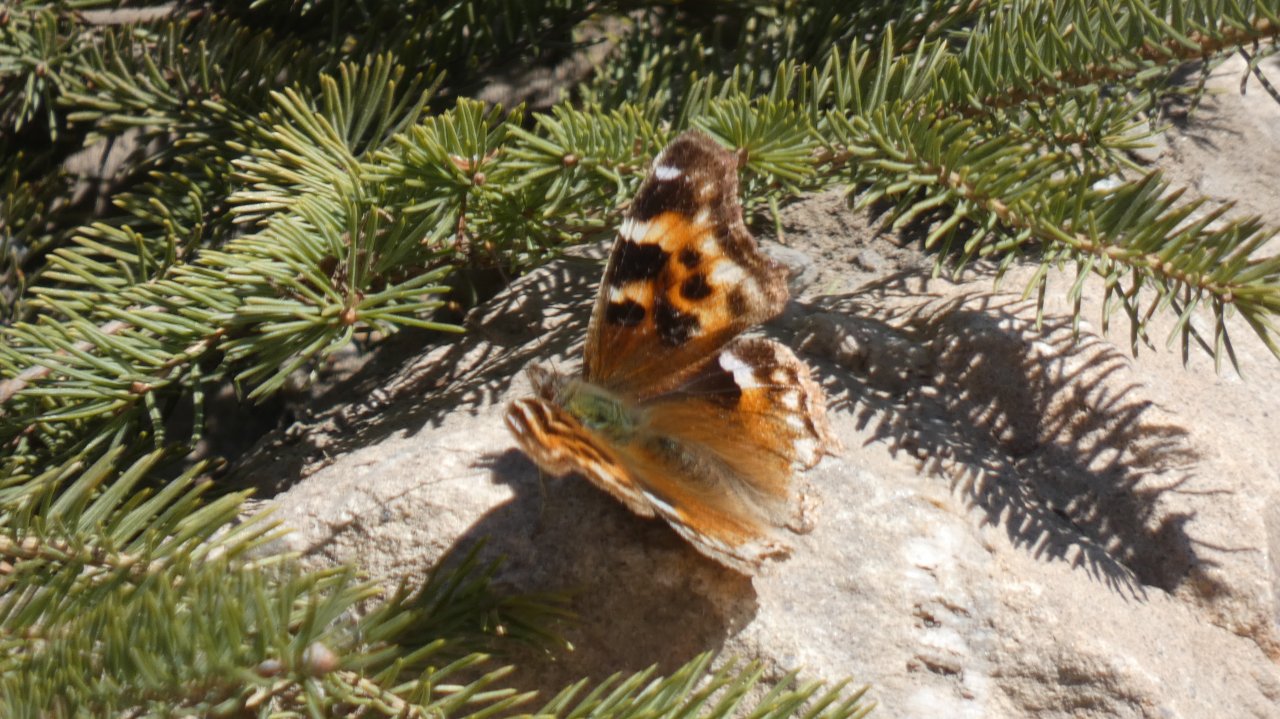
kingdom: Animalia
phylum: Arthropoda
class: Insecta
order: Lepidoptera
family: Nymphalidae
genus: Polygonia
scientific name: Polygonia vaualbum
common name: Compton Tortoiseshell
